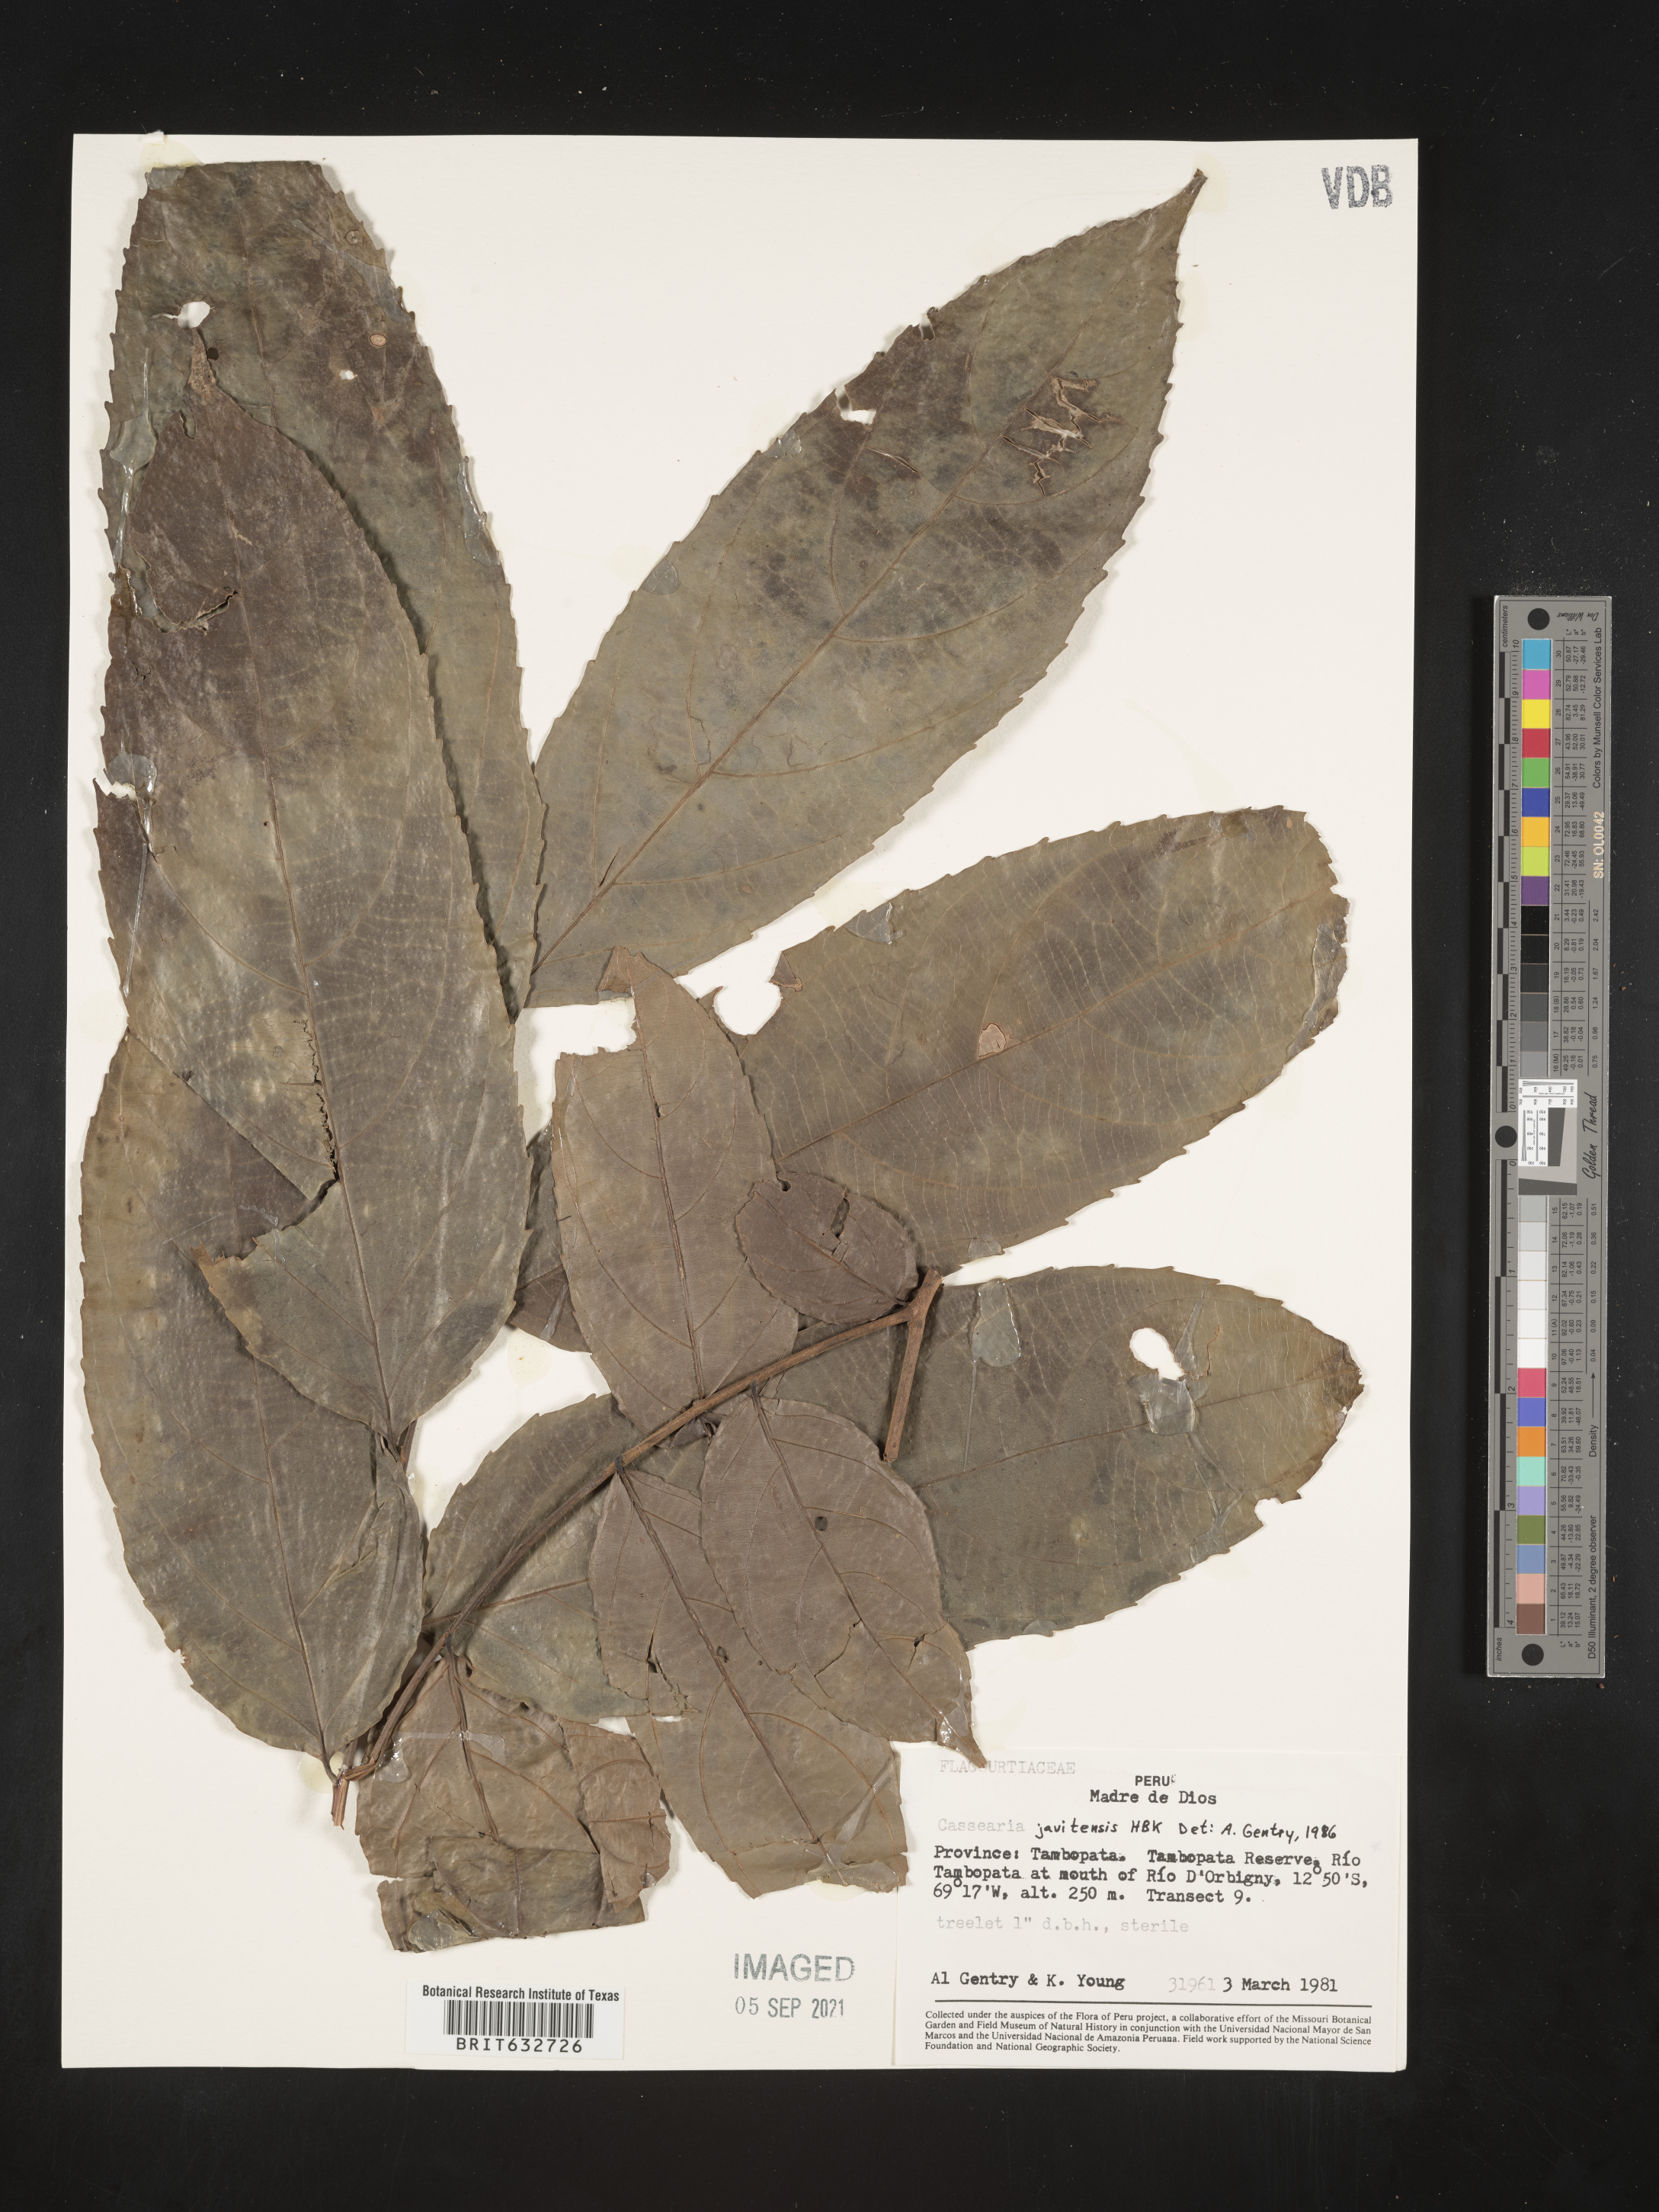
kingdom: Plantae
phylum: Tracheophyta
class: Magnoliopsida
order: Malpighiales
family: Salicaceae
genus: Casearia
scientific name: Casearia
